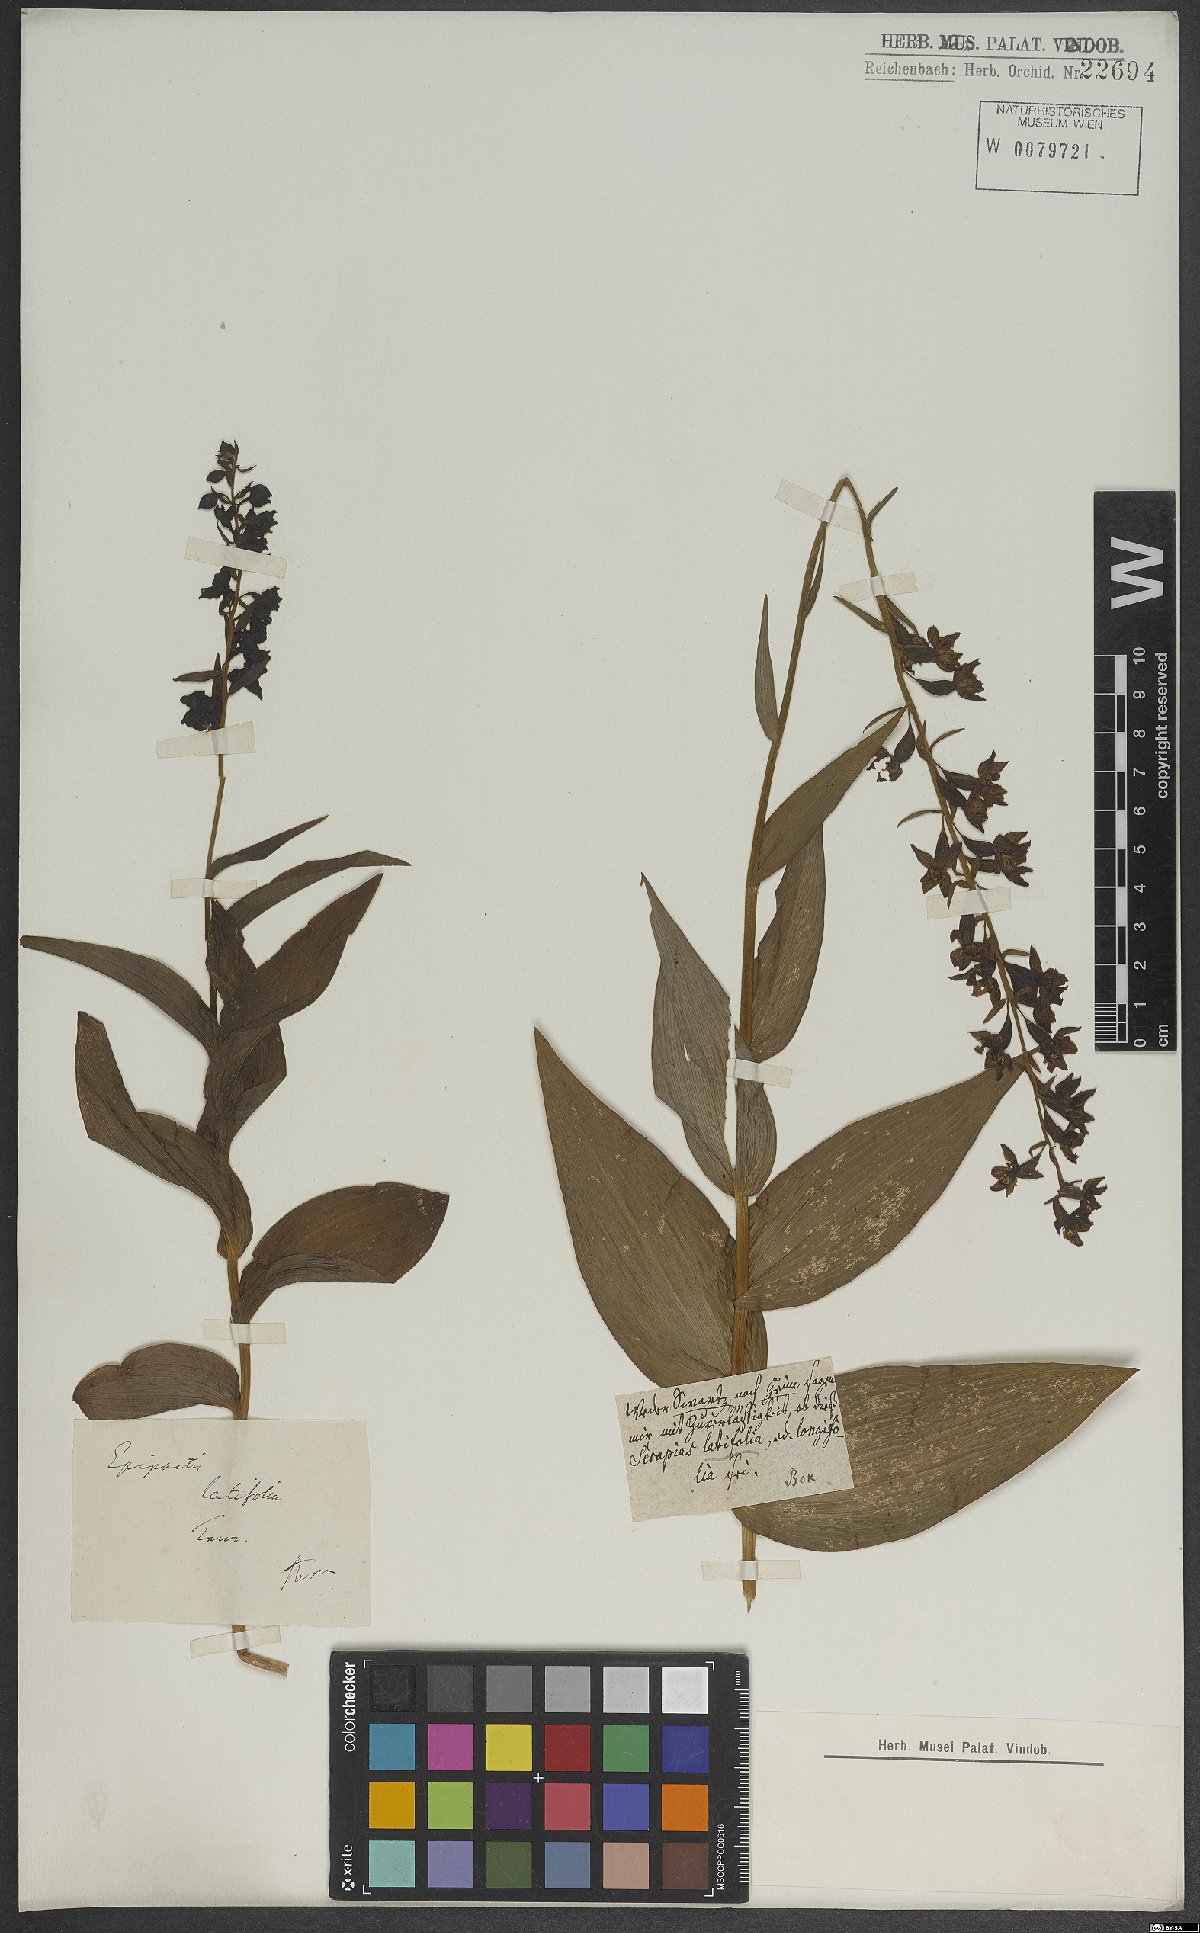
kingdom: Plantae
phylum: Tracheophyta
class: Liliopsida
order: Asparagales
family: Orchidaceae
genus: Epipactis
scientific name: Epipactis helleborine
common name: Broad-leaved helleborine
